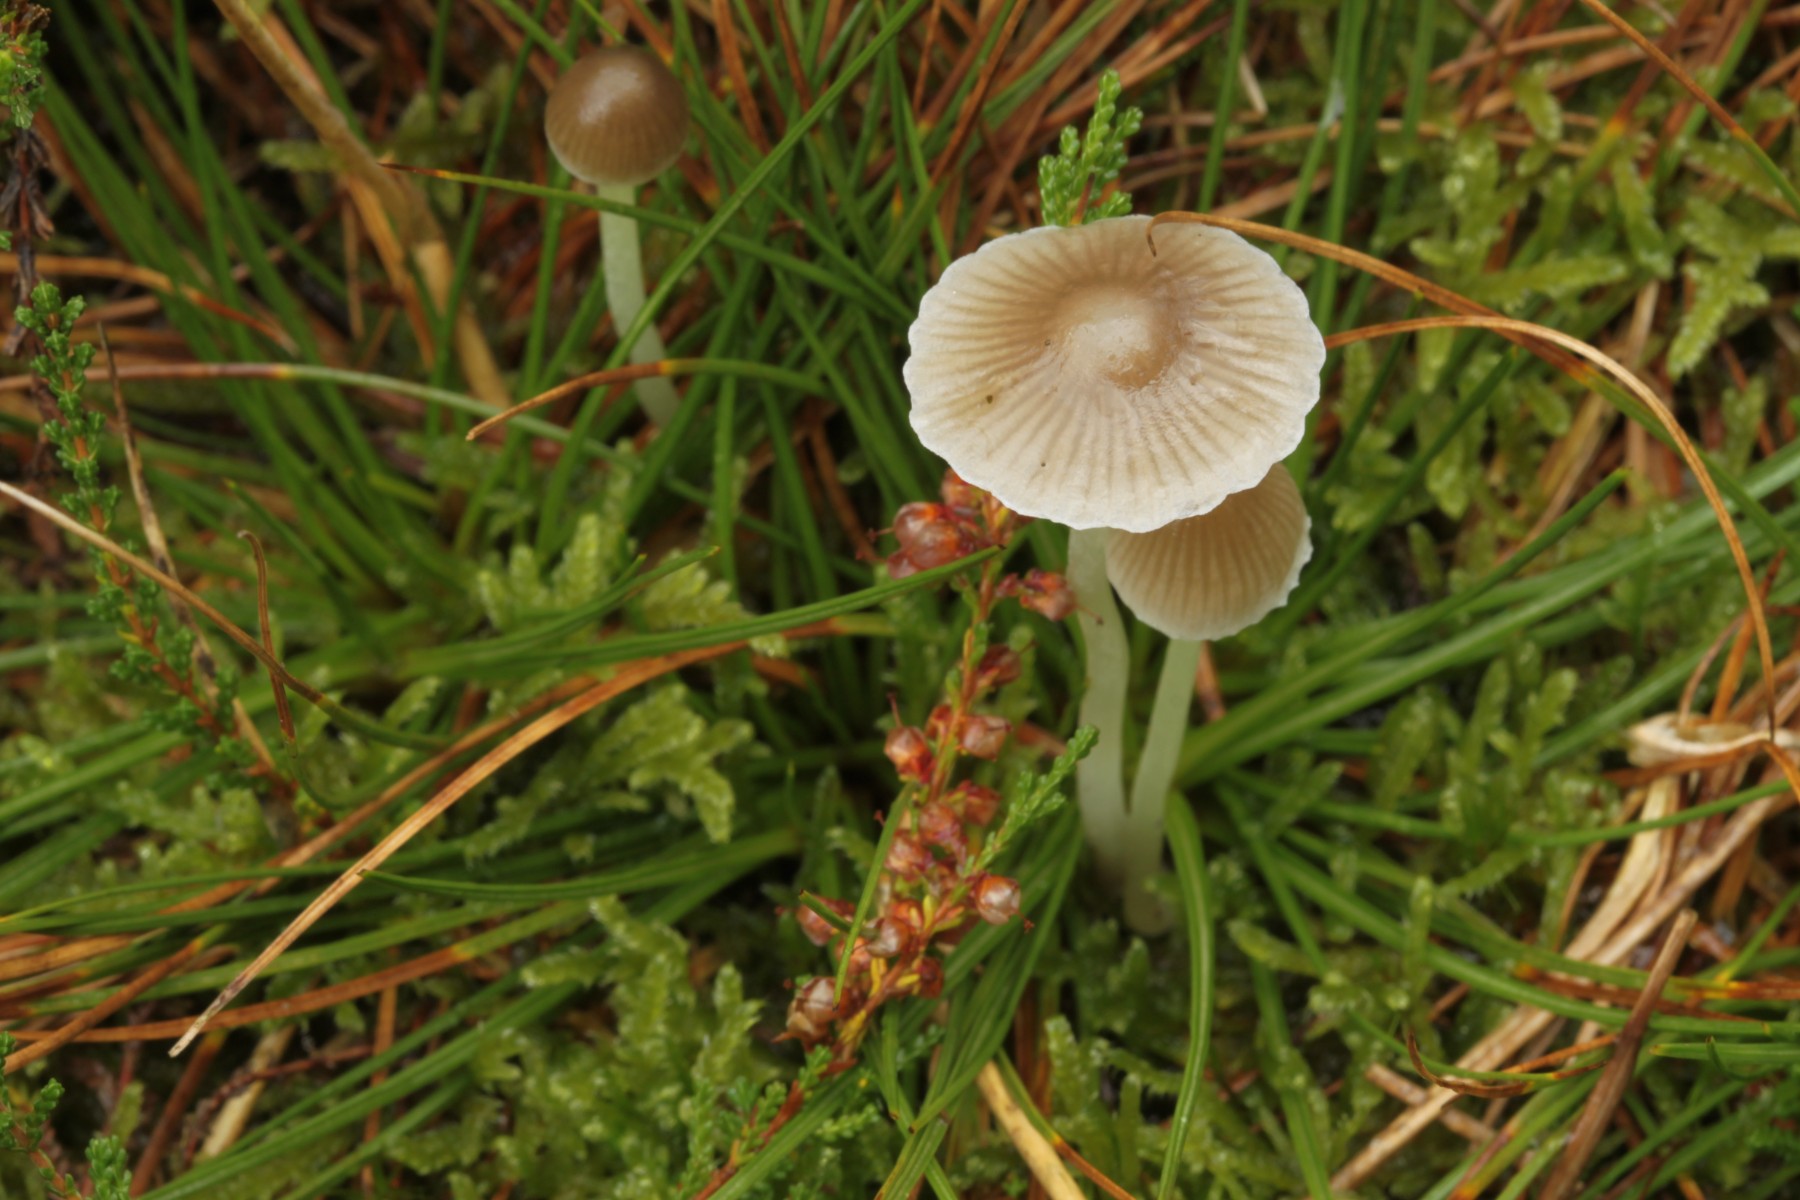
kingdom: Fungi
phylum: Basidiomycota
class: Agaricomycetes
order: Agaricales
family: Mycenaceae
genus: Mycena
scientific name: Mycena epipterygia
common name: gulstokket huesvamp
